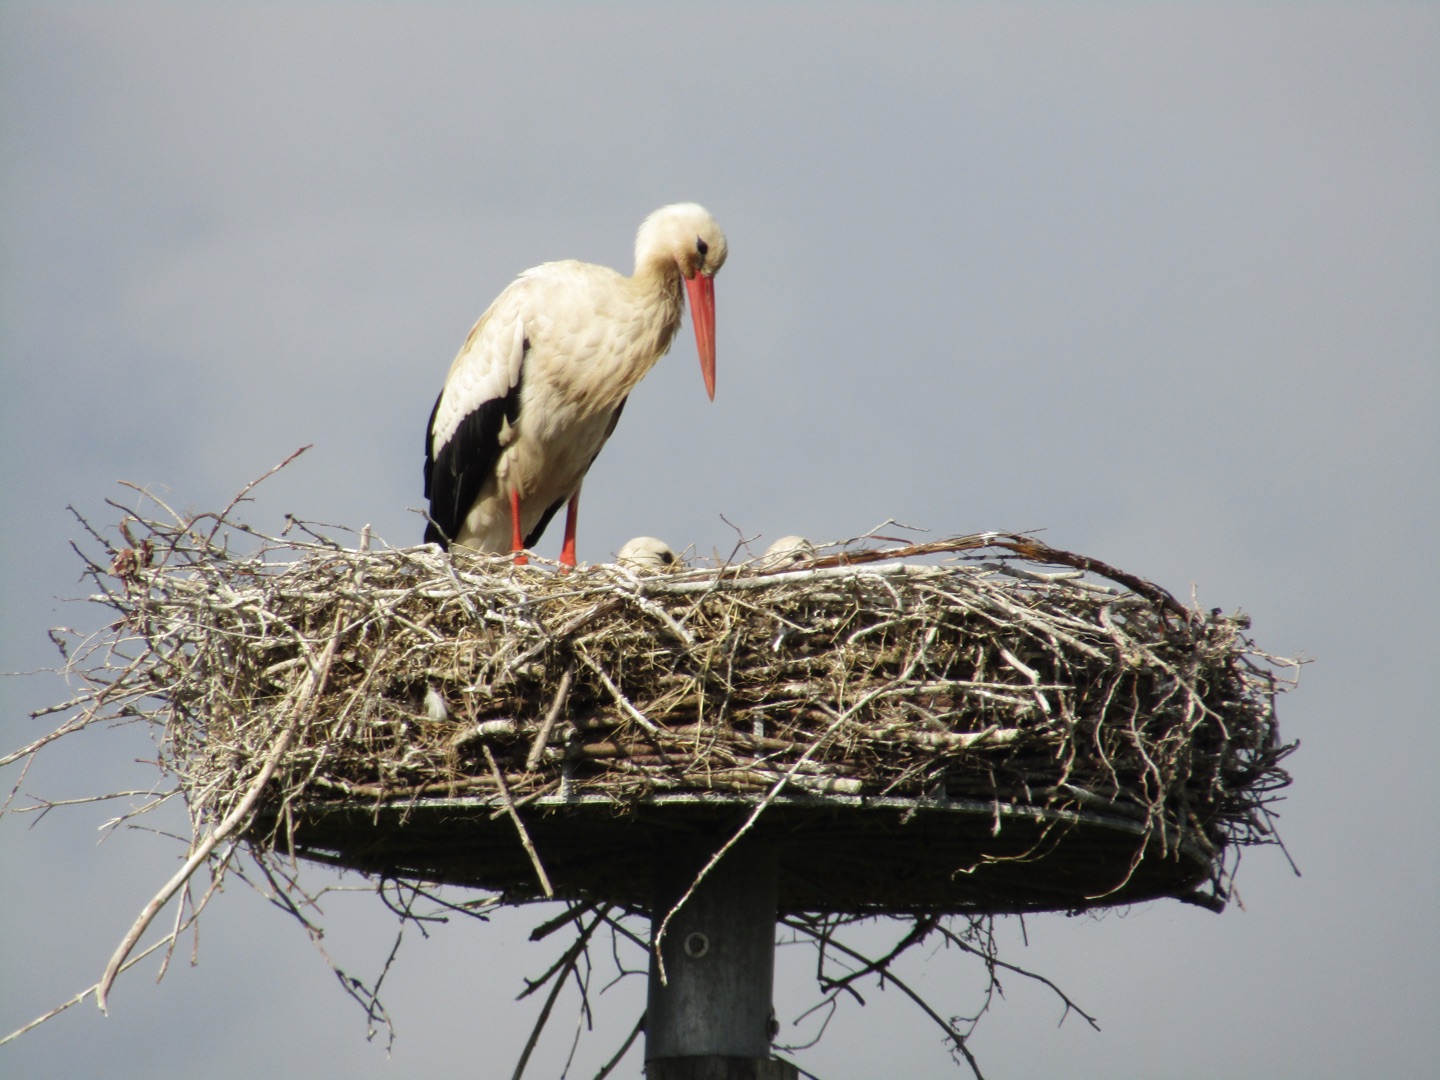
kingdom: Animalia
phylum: Chordata
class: Aves
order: Ciconiiformes
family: Ciconiidae
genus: Ciconia
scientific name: Ciconia ciconia
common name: Hvid stork
